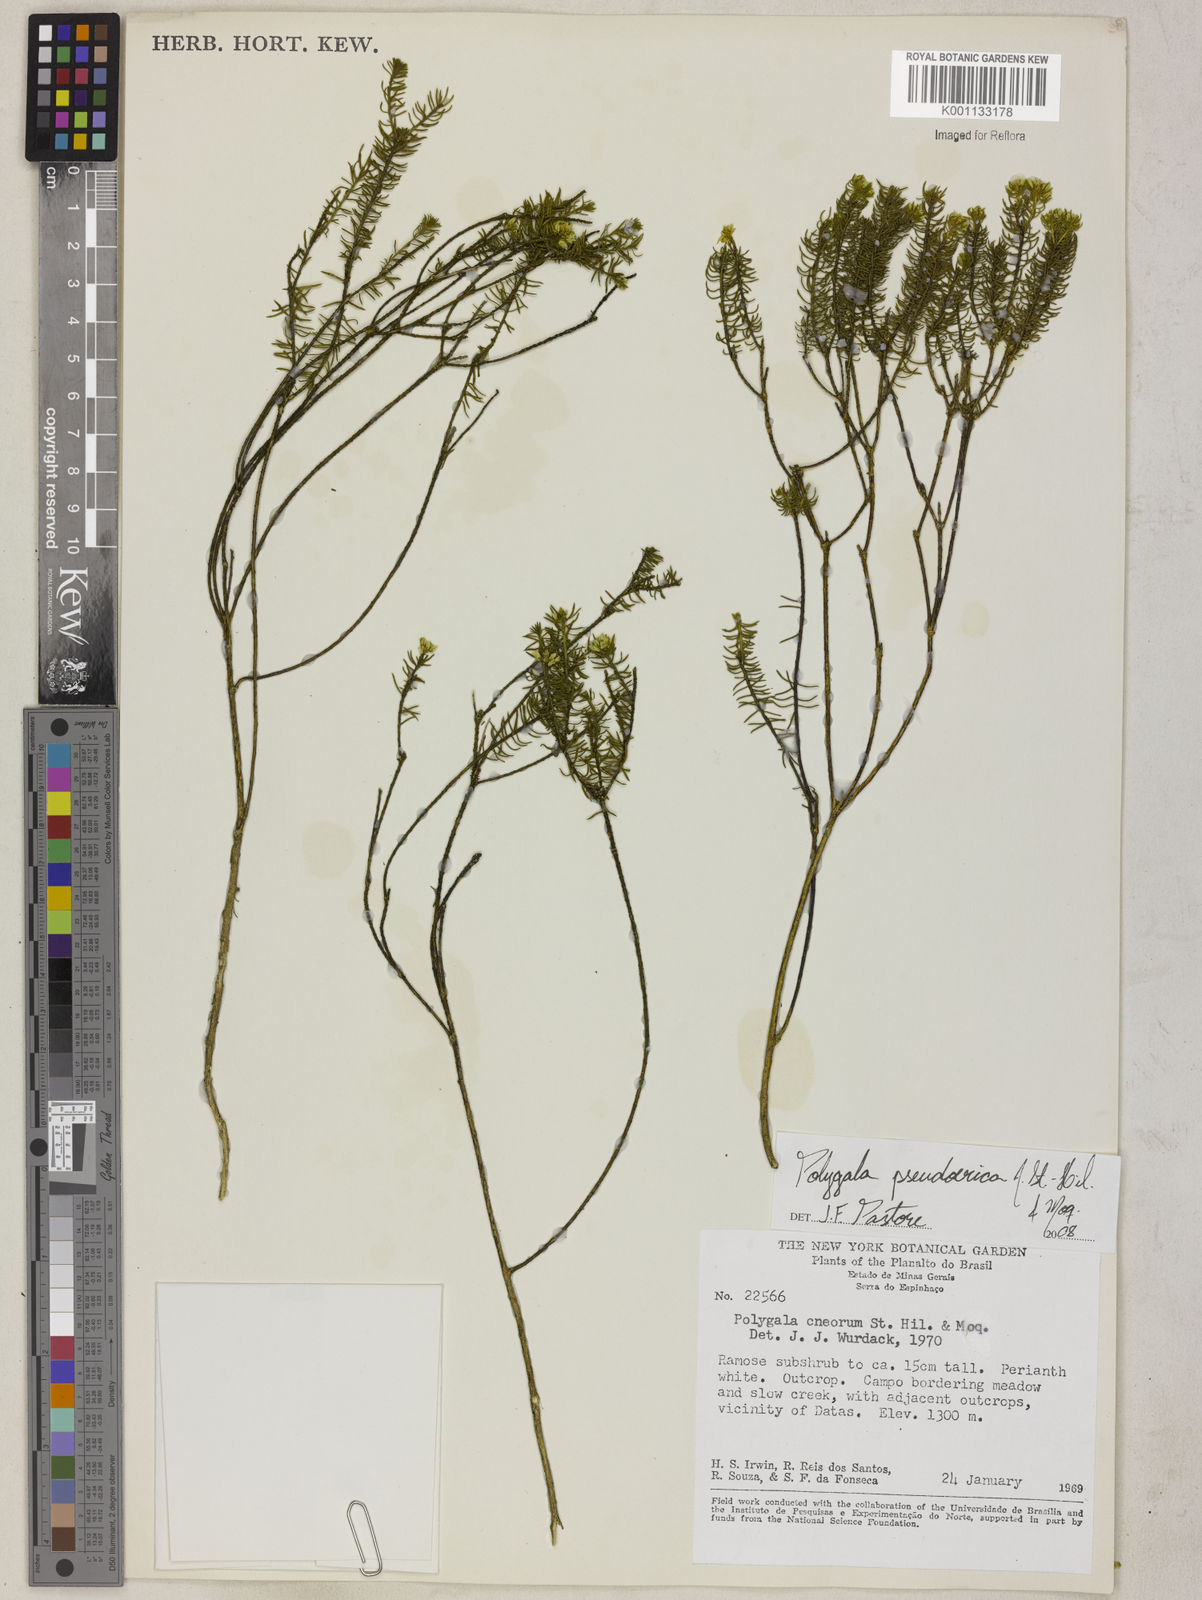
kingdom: Plantae
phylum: Tracheophyta
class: Magnoliopsida
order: Fabales
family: Polygalaceae
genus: Polygala
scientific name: Polygala pseudoerica
